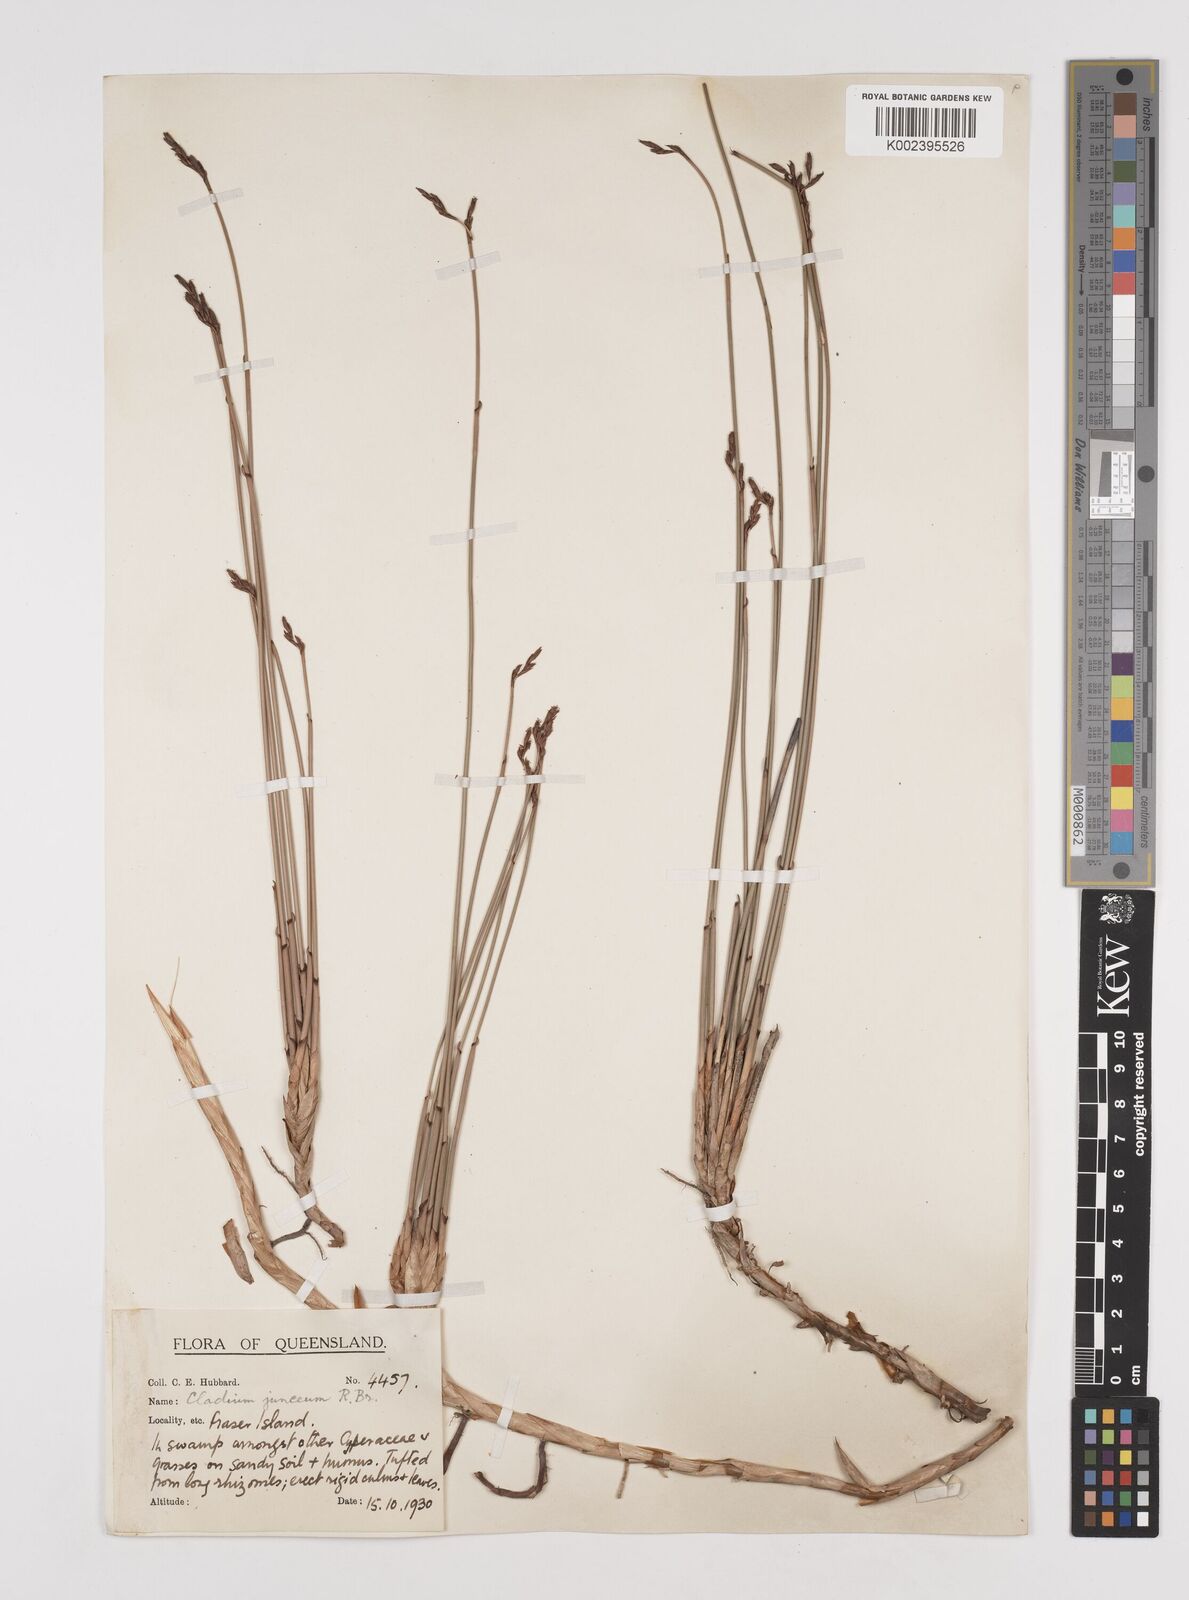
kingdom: Plantae
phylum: Tracheophyta
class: Liliopsida
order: Poales
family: Cyperaceae
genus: Machaerina
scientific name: Machaerina juncea
